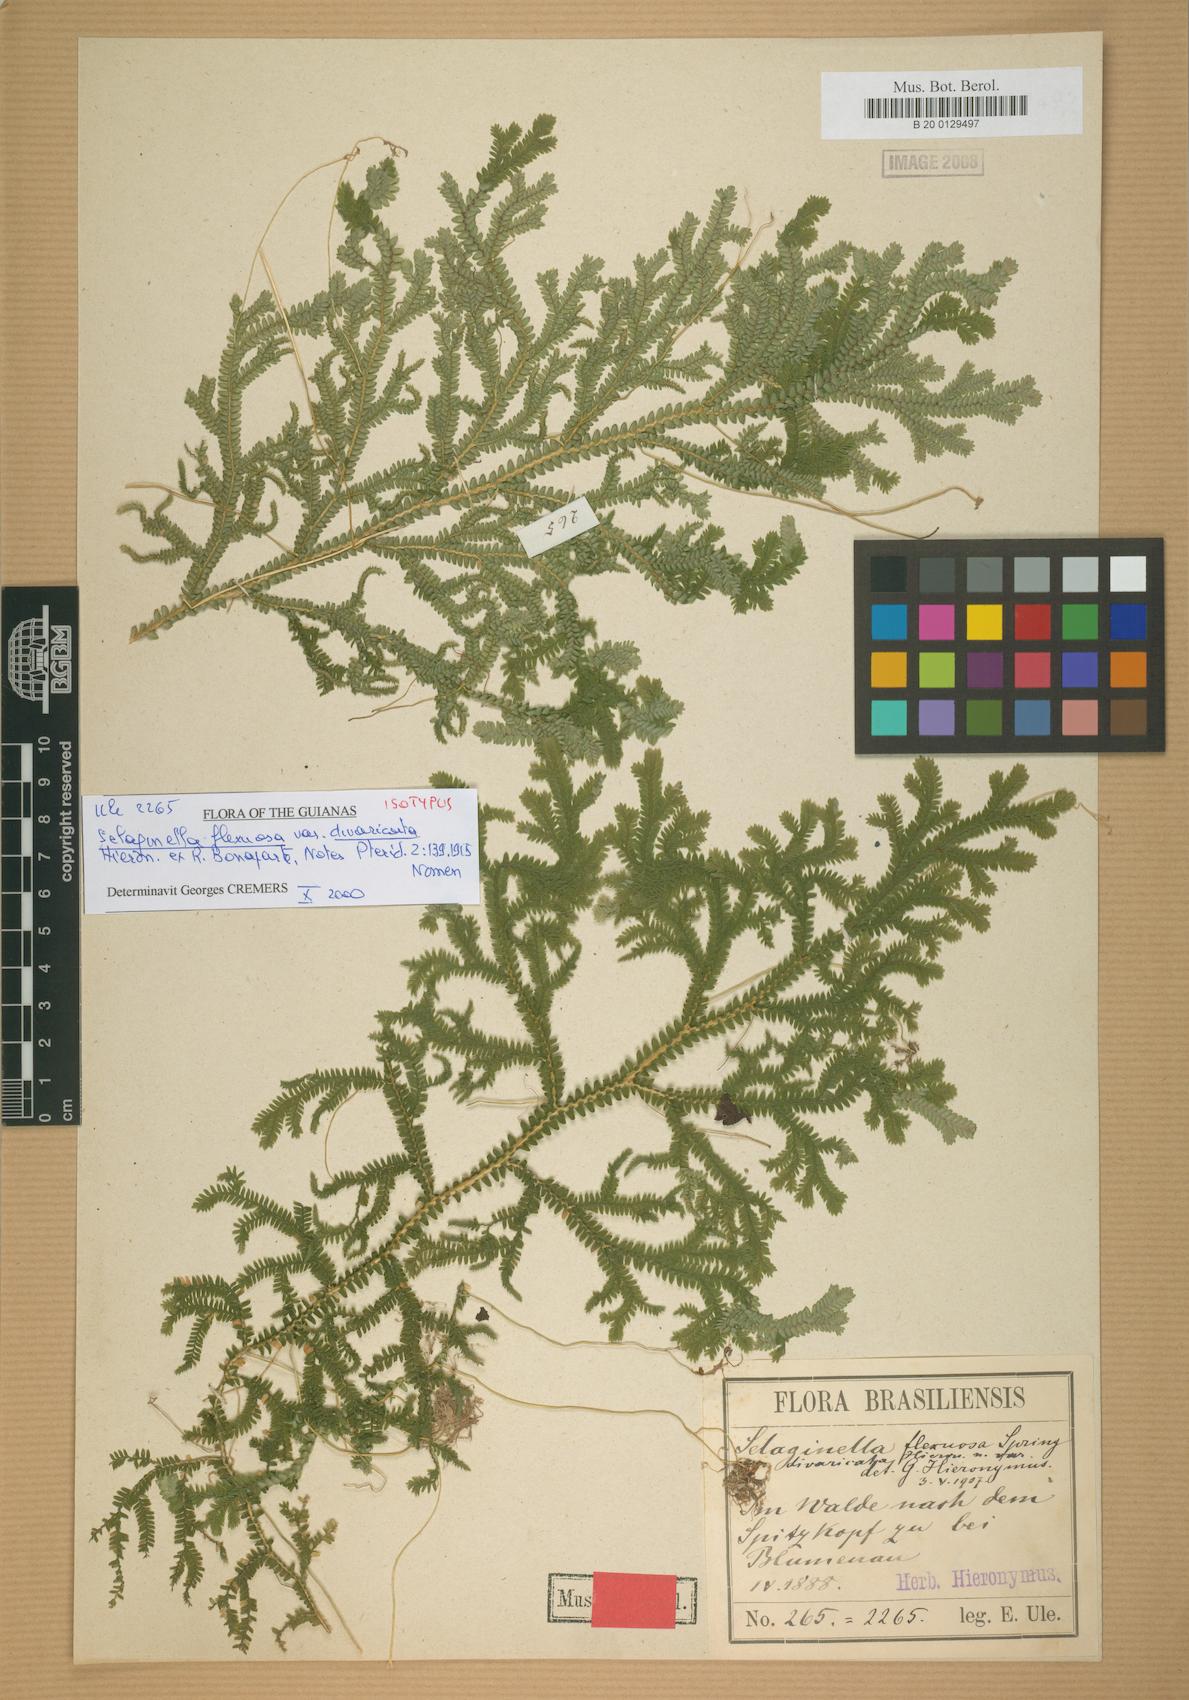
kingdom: Plantae
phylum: Tracheophyta
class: Lycopodiopsida
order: Selaginellales
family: Selaginellaceae
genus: Selaginella
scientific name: Selaginella flexuosa
